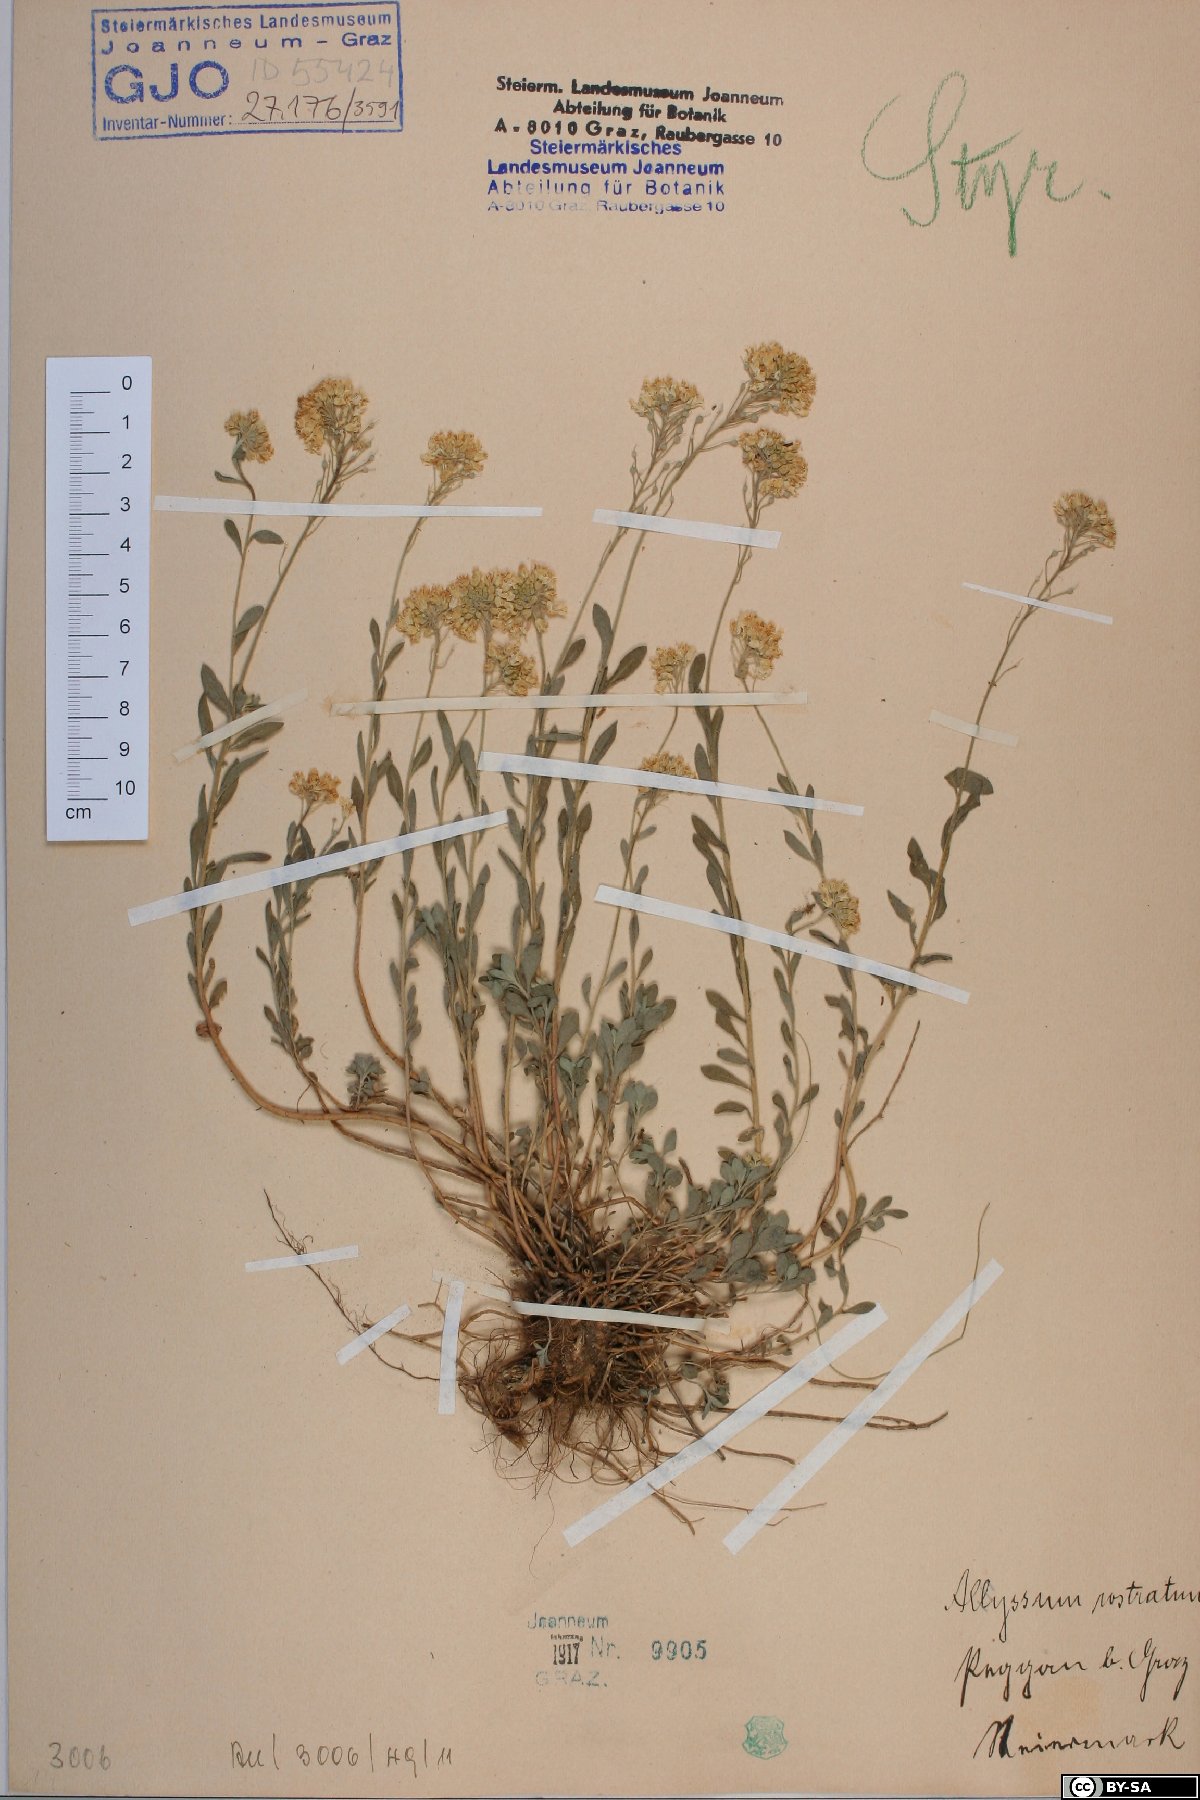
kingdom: Plantae
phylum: Tracheophyta
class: Magnoliopsida
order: Brassicales
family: Brassicaceae
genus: Alyssum
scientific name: Alyssum rostratum
